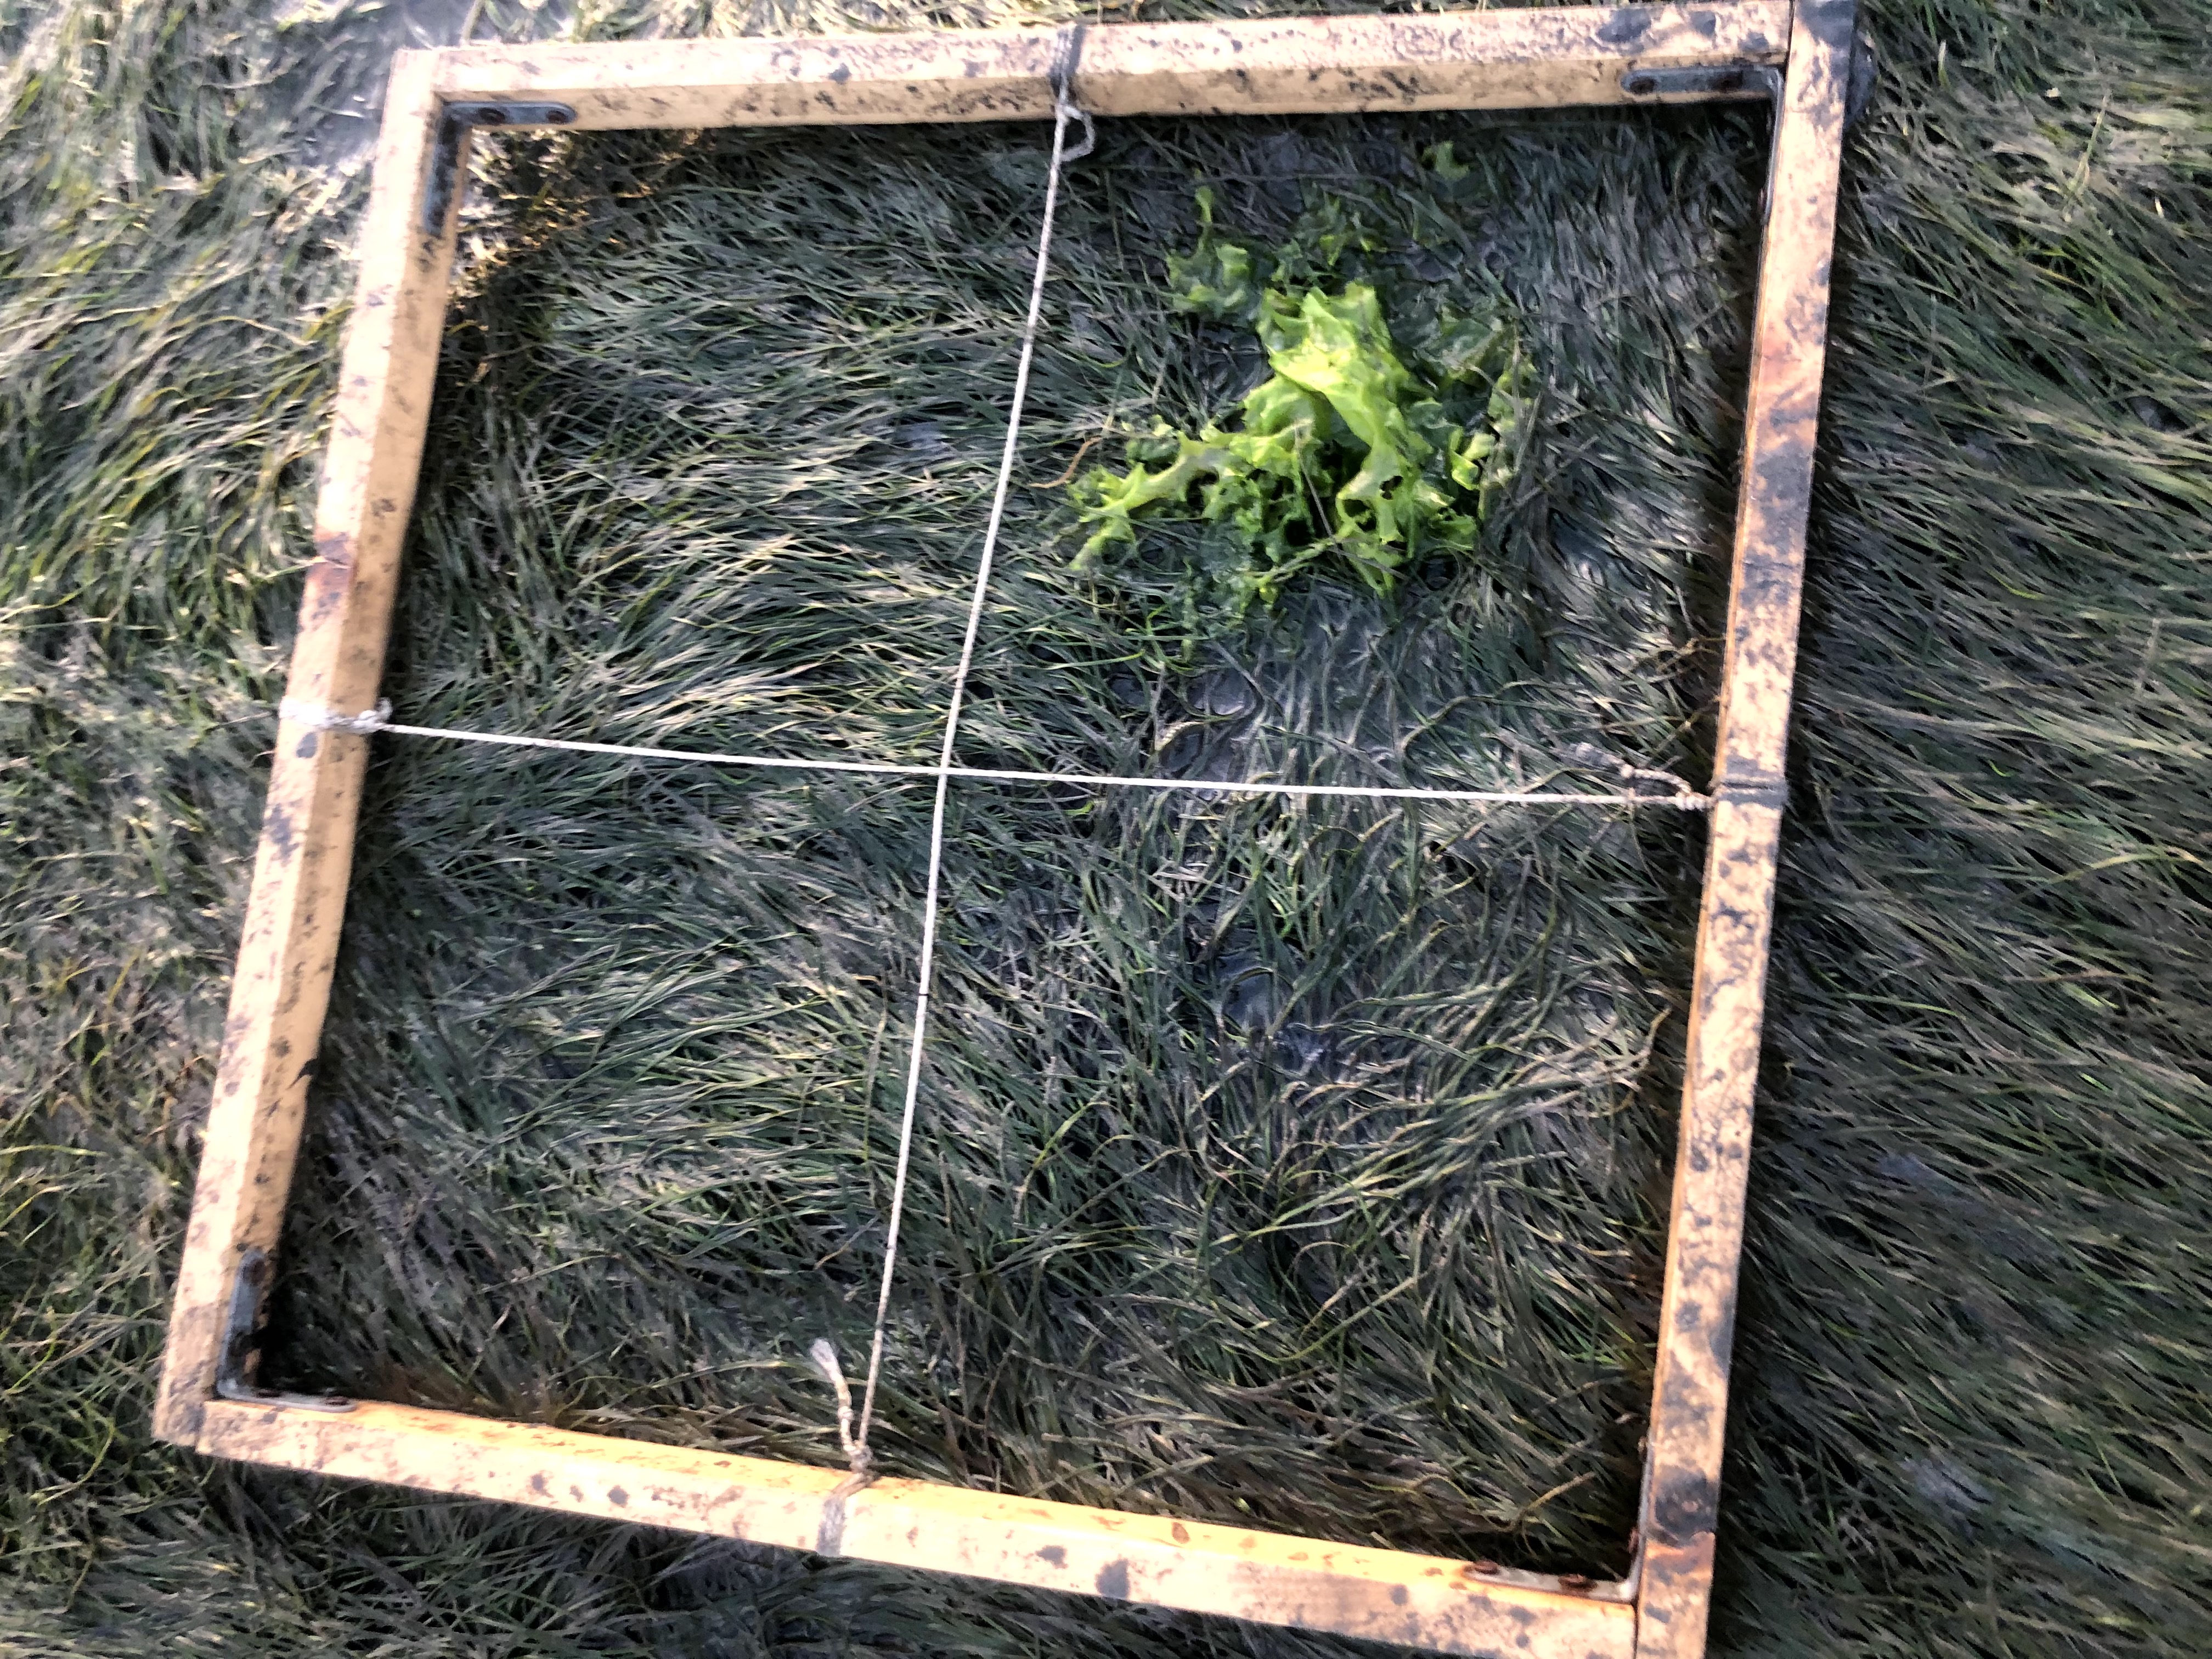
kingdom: Plantae
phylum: Chlorophyta
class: Ulvophyceae
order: Ulvales
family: Ulvaceae
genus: Ulva
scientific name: Ulva
